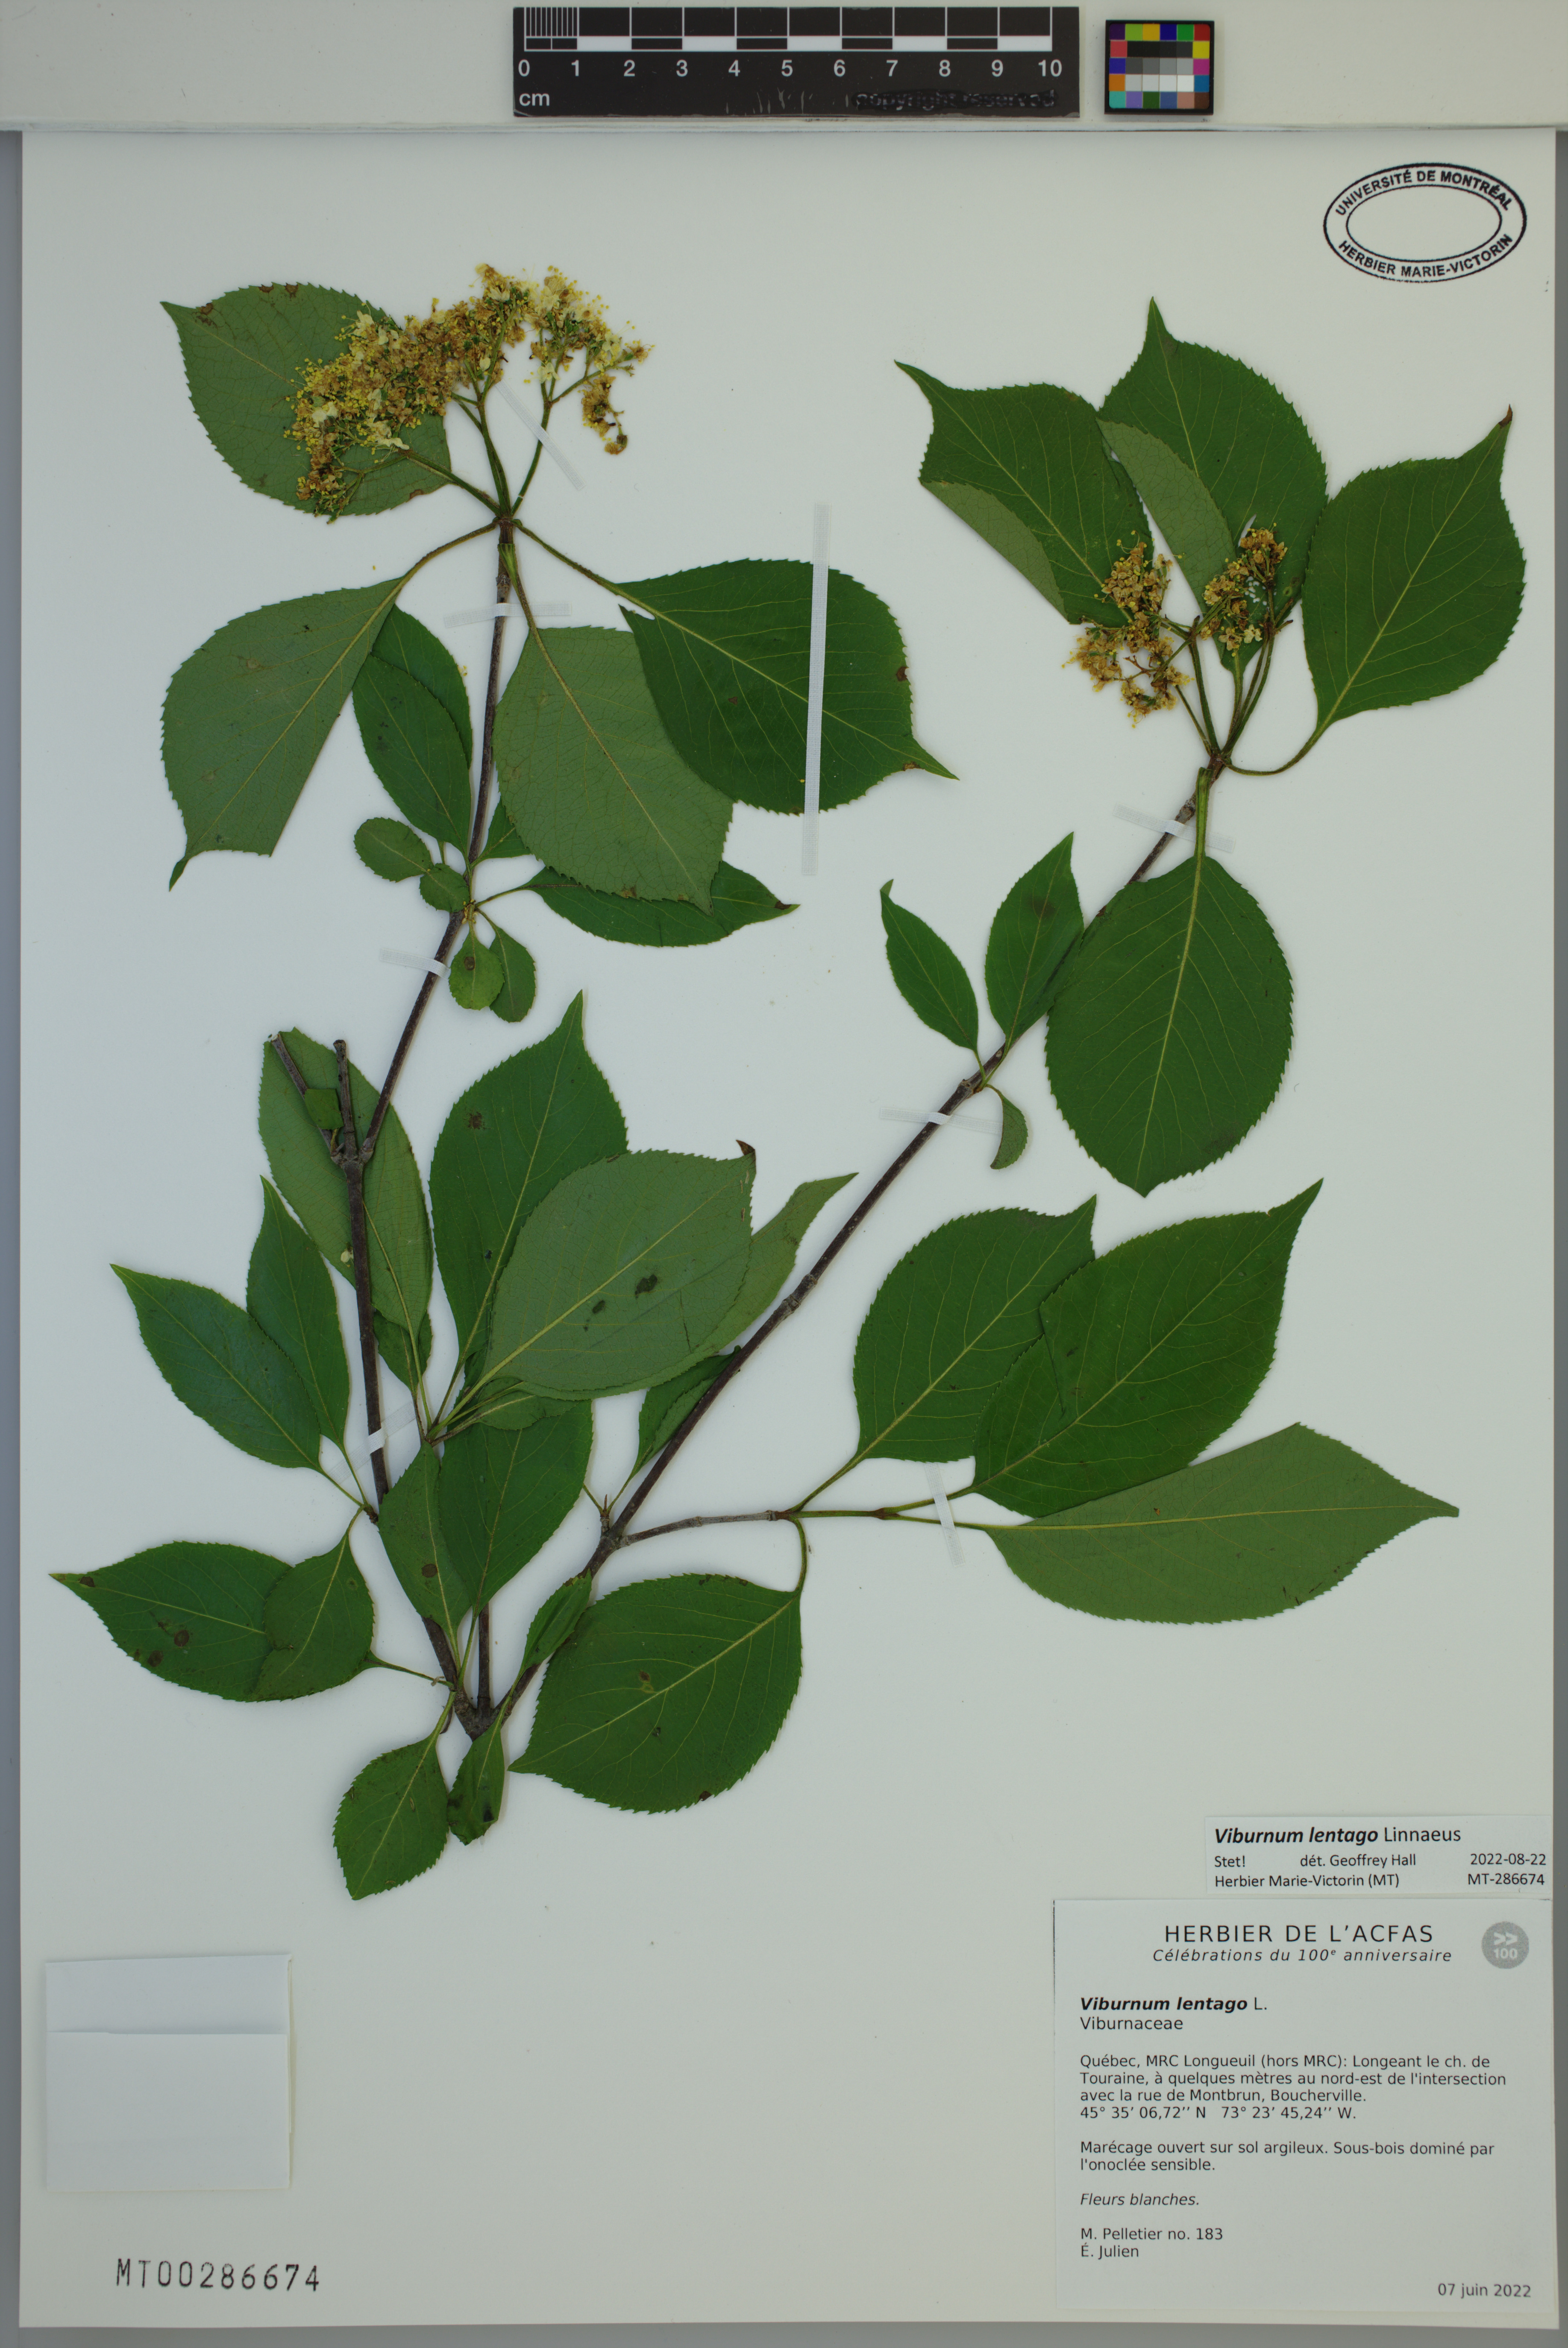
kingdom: Plantae
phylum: Tracheophyta
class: Magnoliopsida
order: Dipsacales
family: Viburnaceae
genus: Viburnum
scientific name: Viburnum lentago
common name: Black haw
